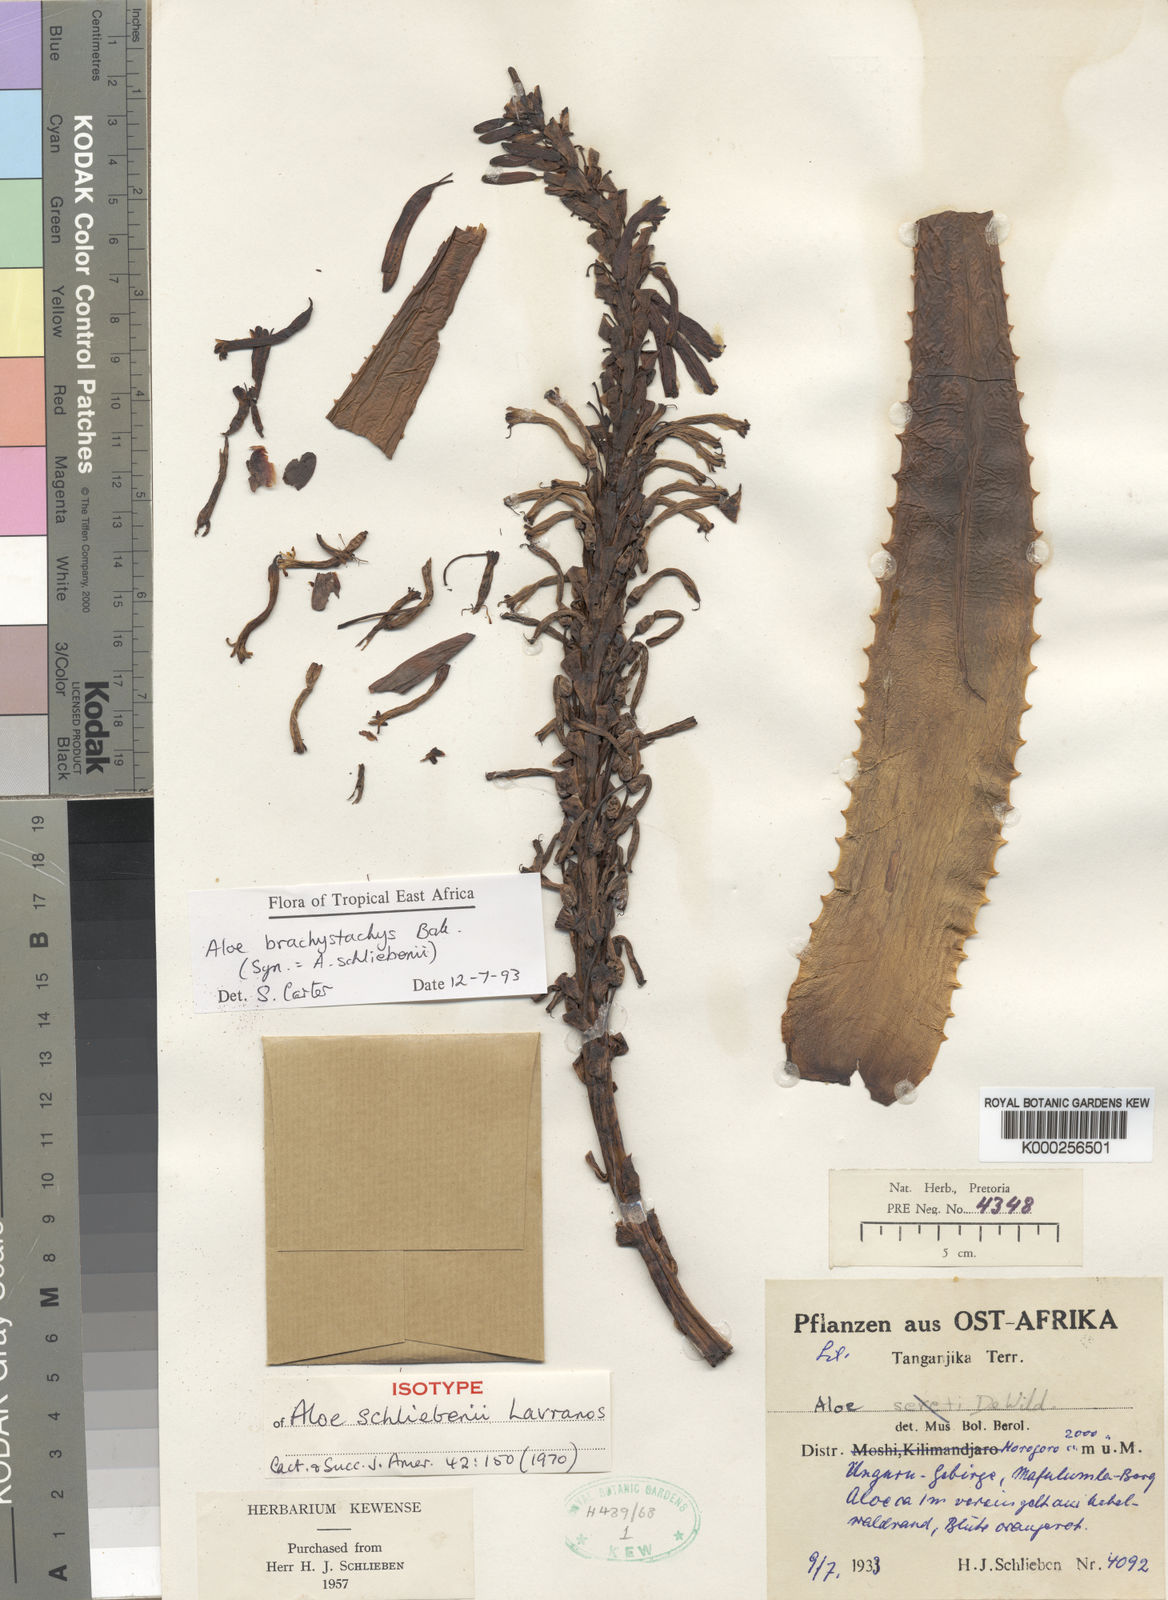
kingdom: Plantae
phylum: Tracheophyta
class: Liliopsida
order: Asparagales
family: Asphodelaceae
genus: Aloe
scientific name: Aloe brachystachys
